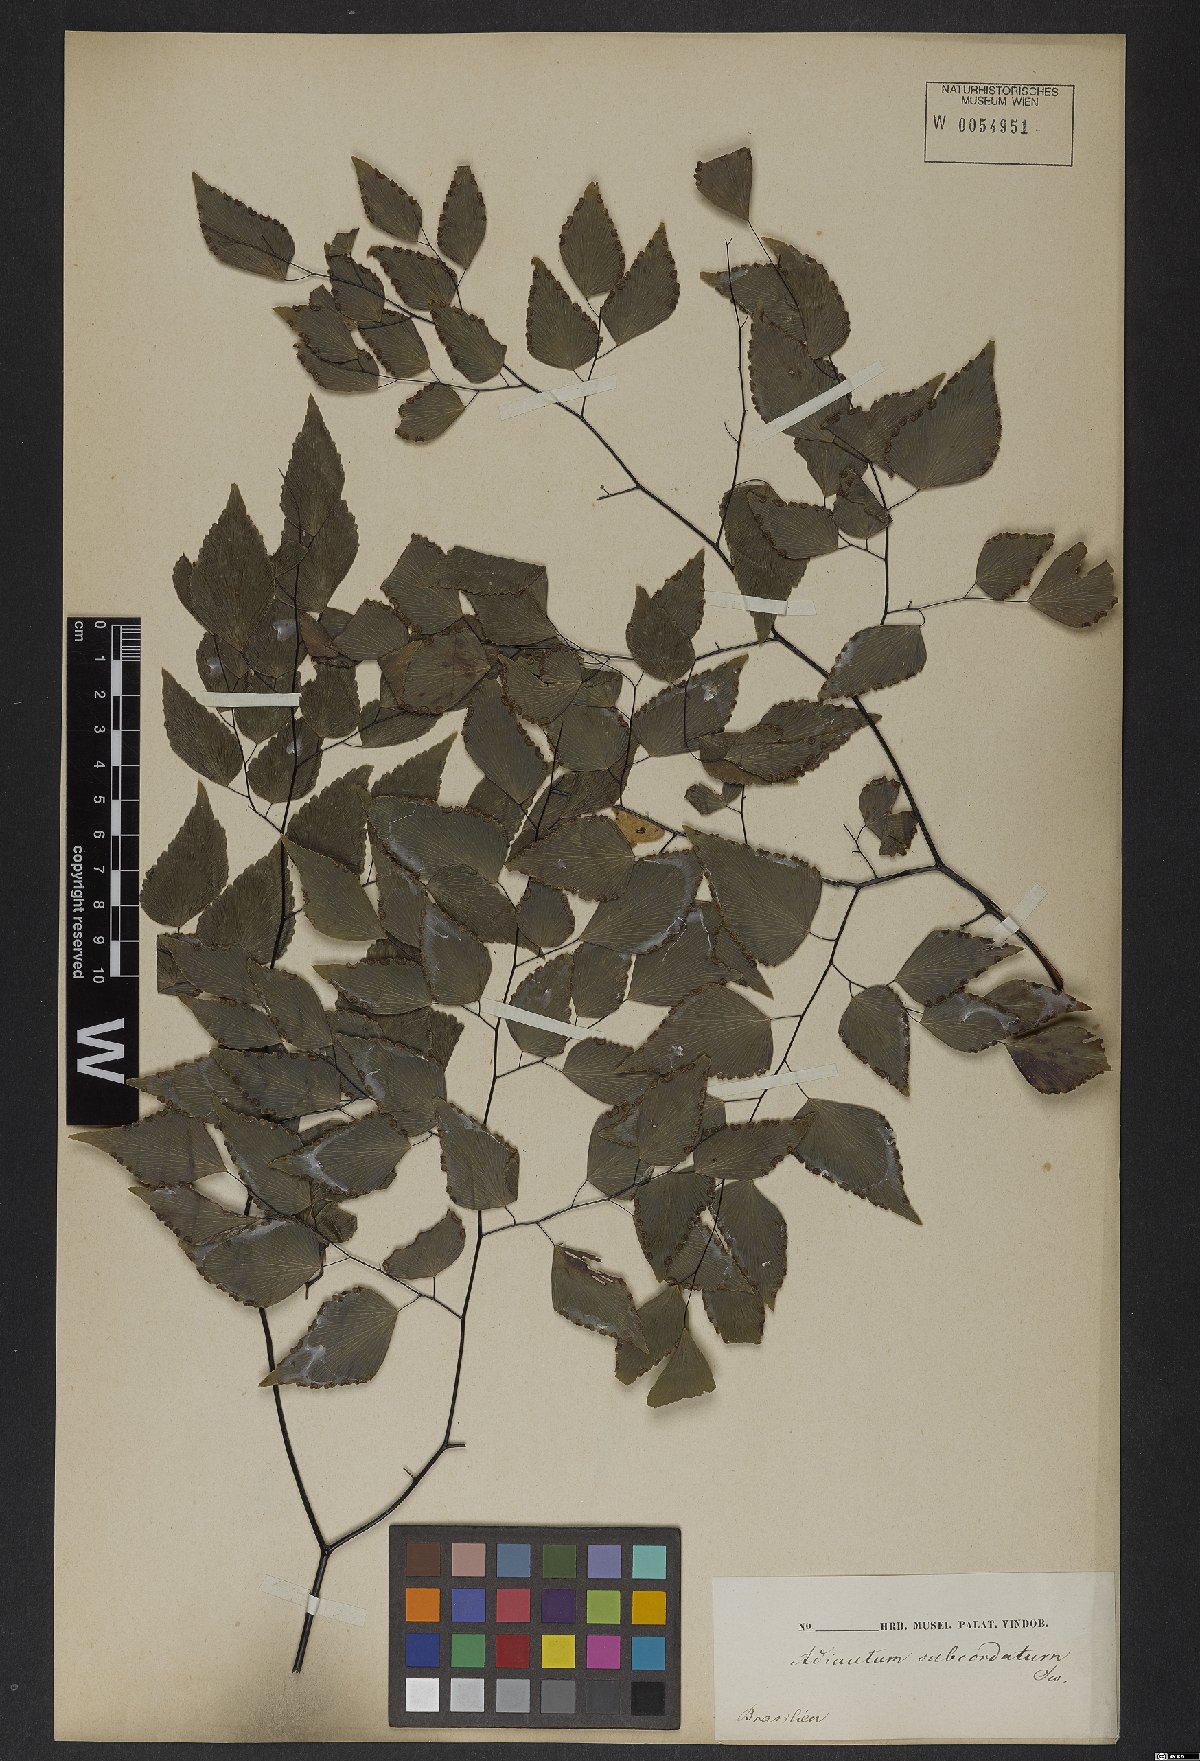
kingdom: Plantae
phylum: Tracheophyta
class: Polypodiopsida
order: Polypodiales
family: Pteridaceae
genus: Adiantum
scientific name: Adiantum subcordatum
